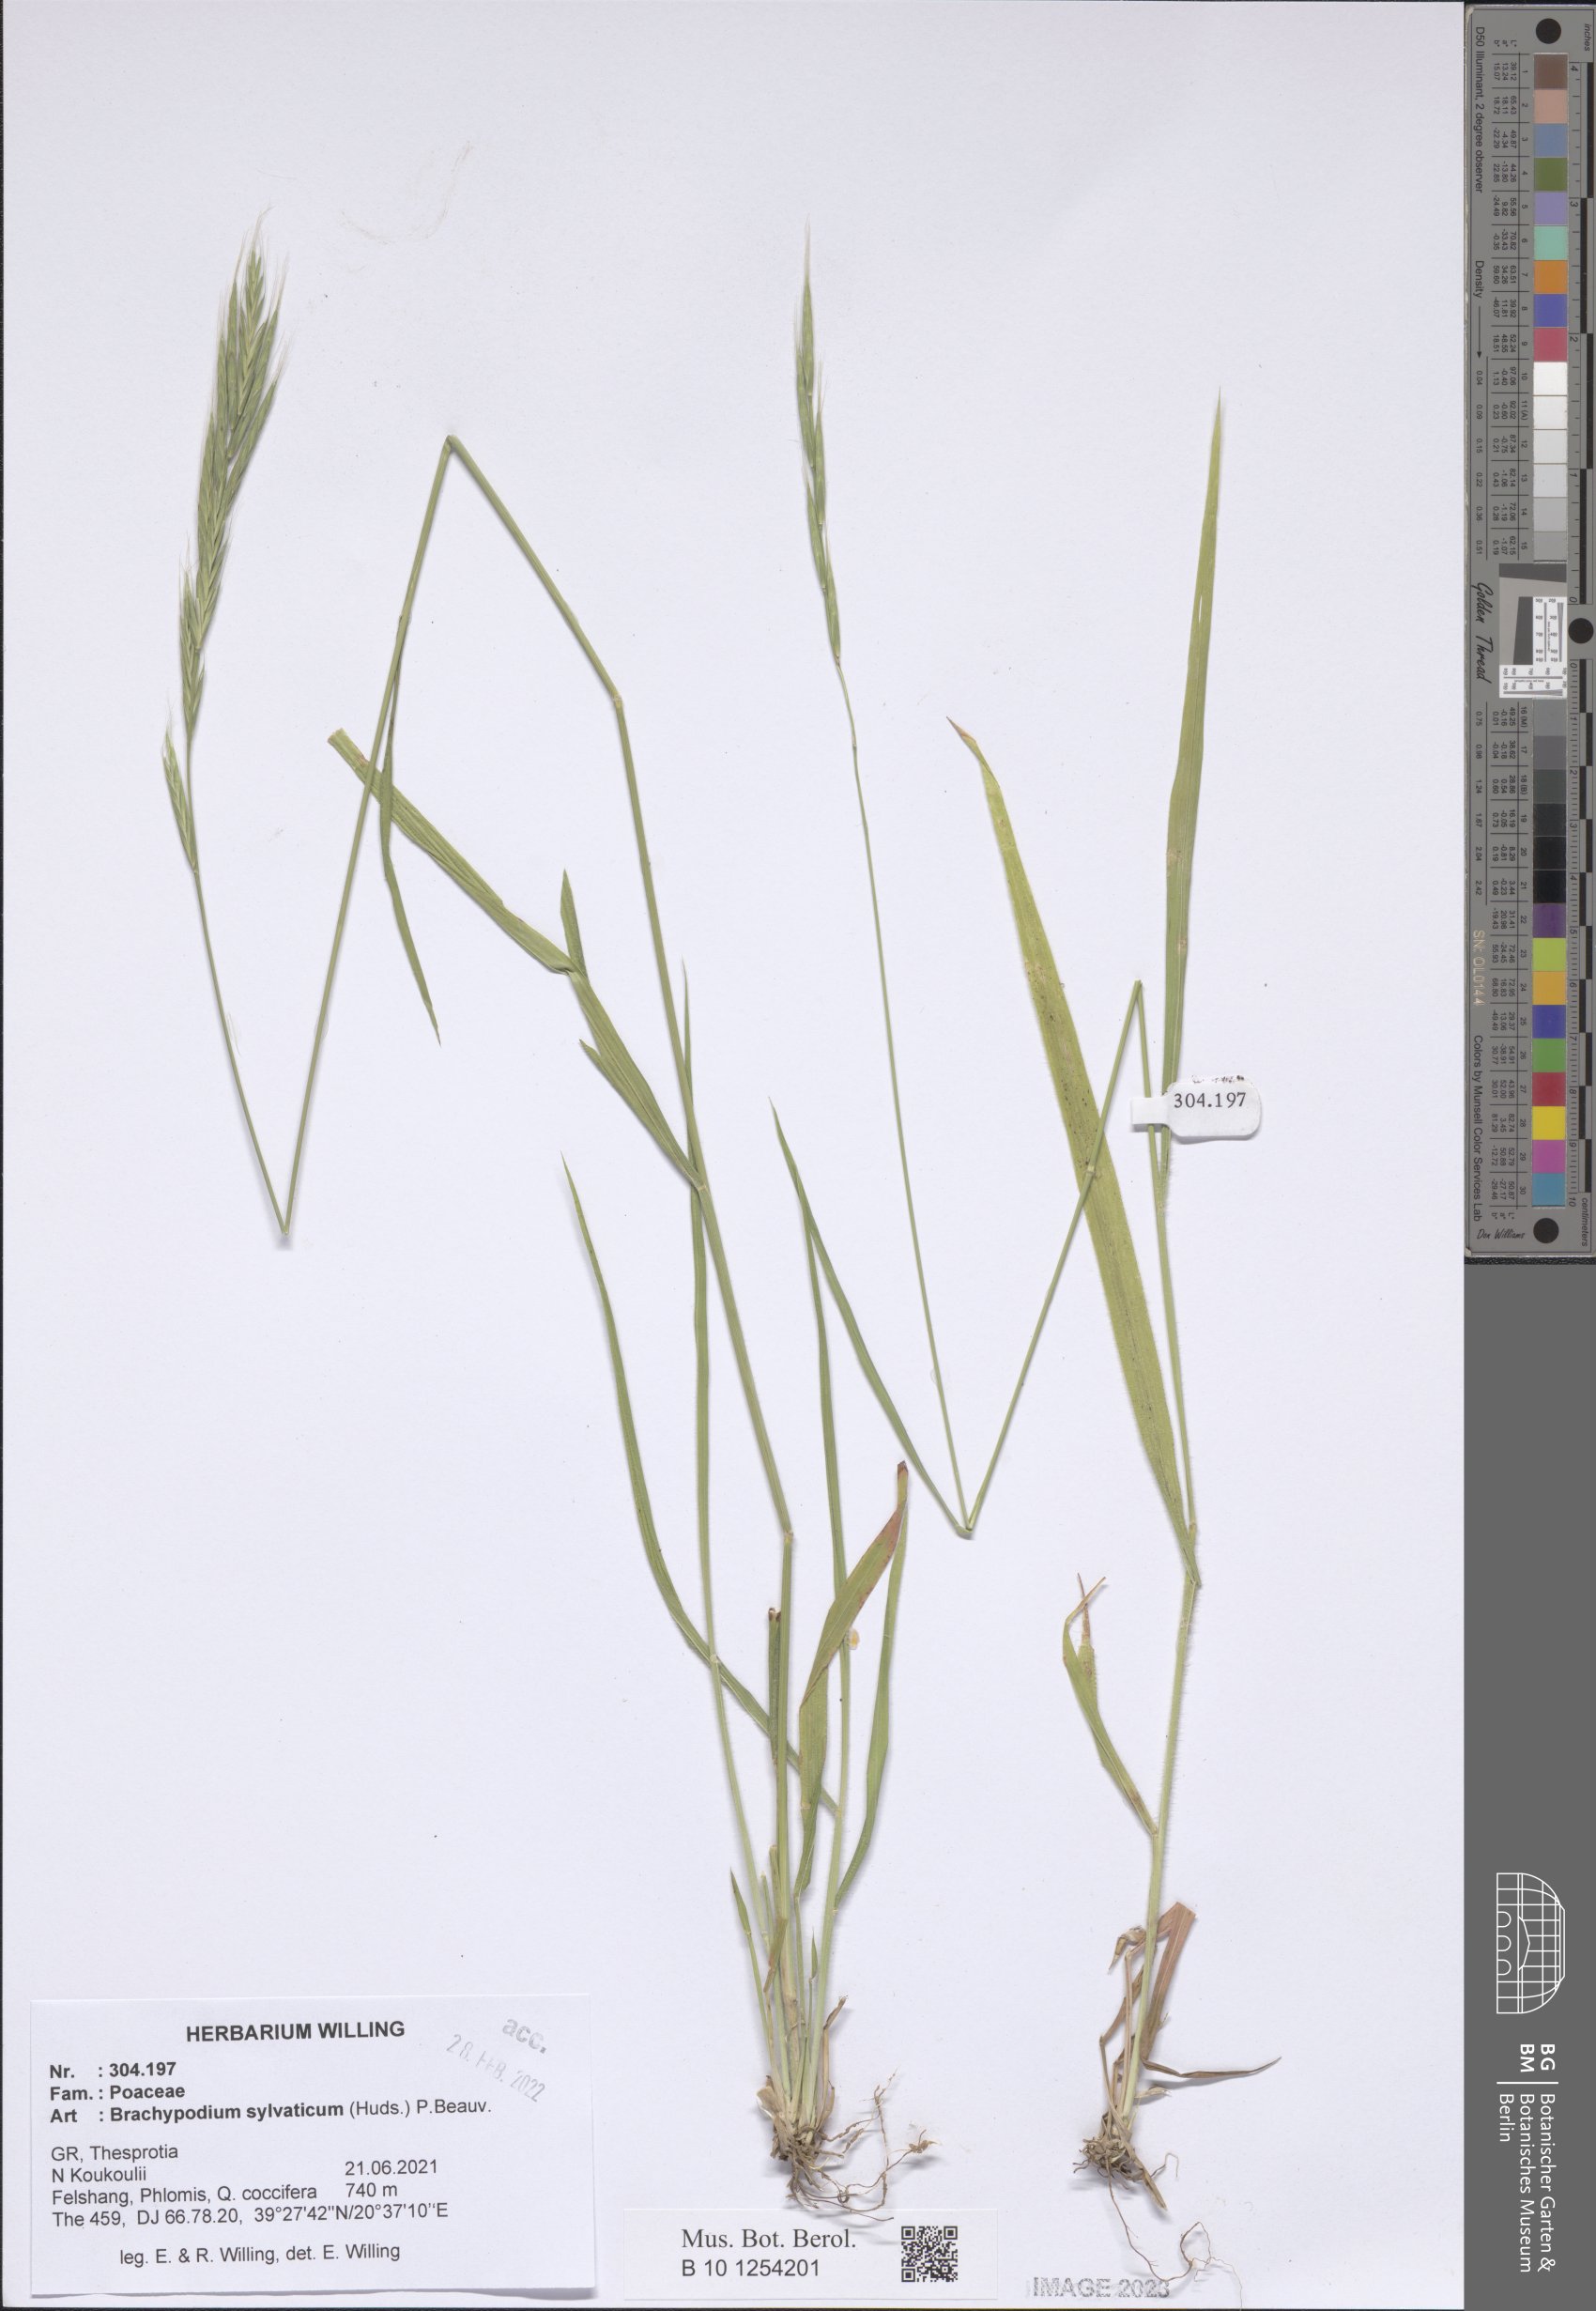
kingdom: Plantae
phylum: Tracheophyta
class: Liliopsida
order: Poales
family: Poaceae
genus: Brachypodium
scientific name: Brachypodium sylvaticum
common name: False-brome
